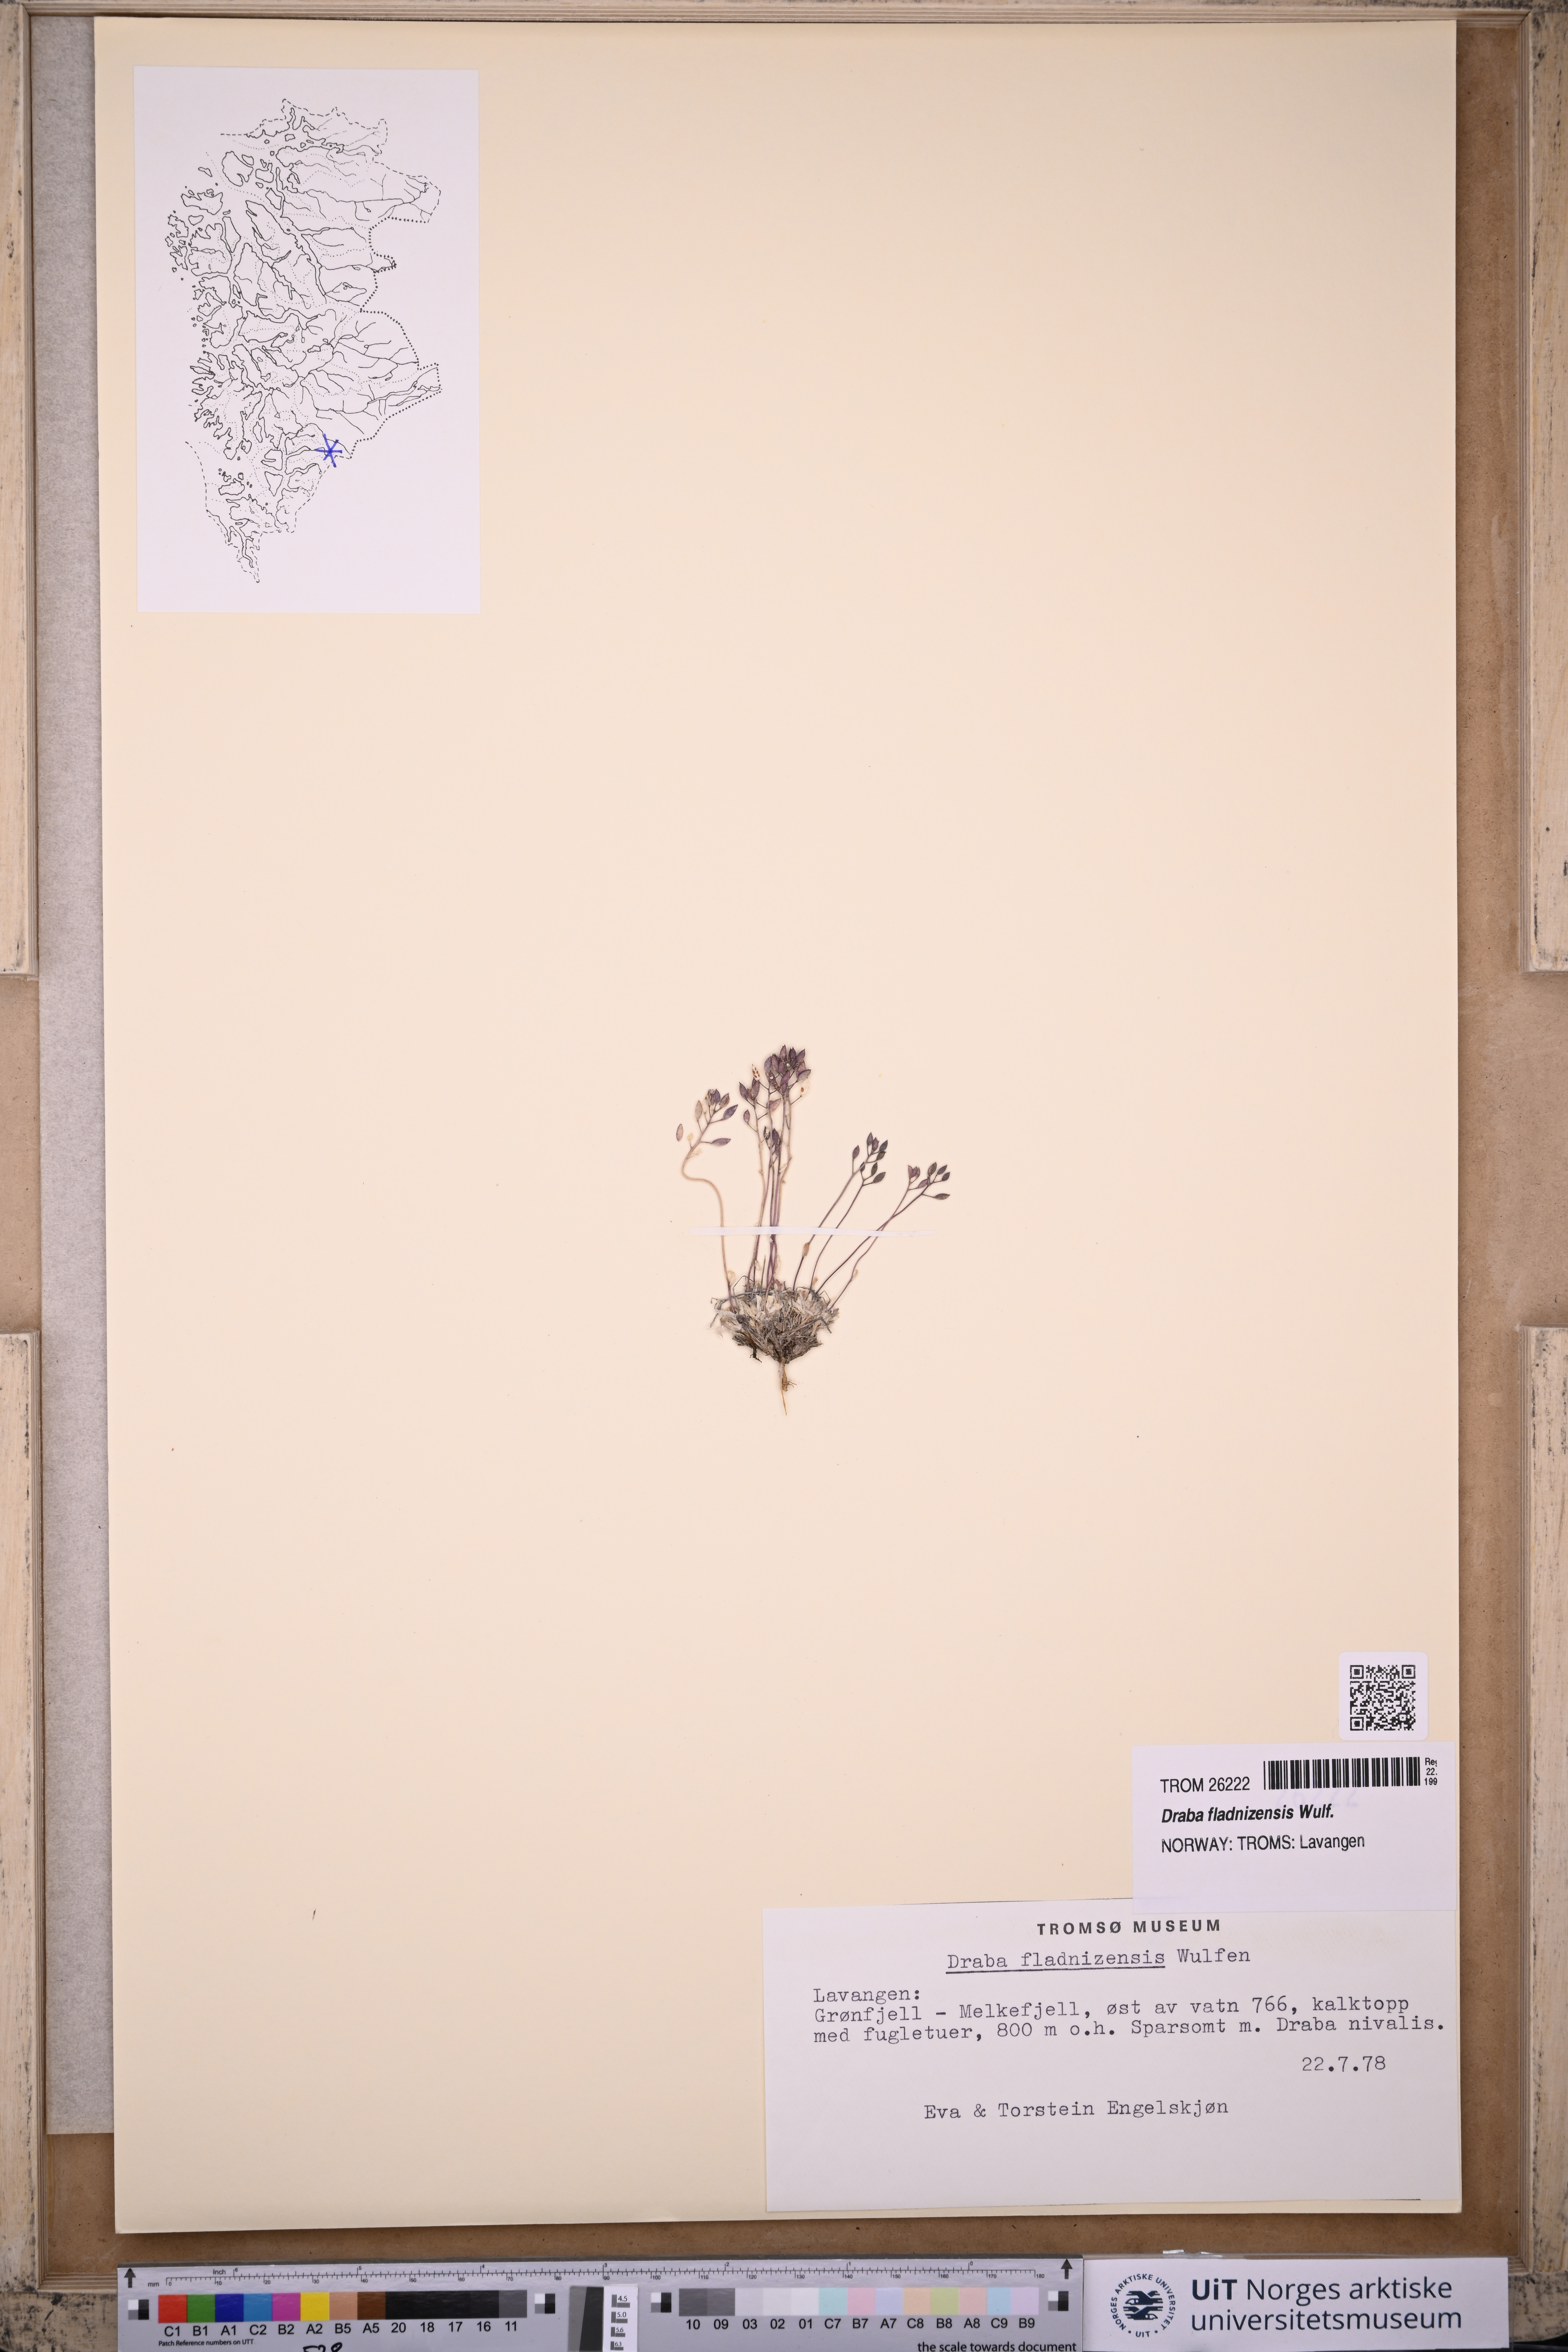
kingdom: Plantae
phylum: Tracheophyta
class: Magnoliopsida
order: Brassicales
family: Brassicaceae
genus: Draba
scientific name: Draba fladnizensis
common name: Austrian draba
